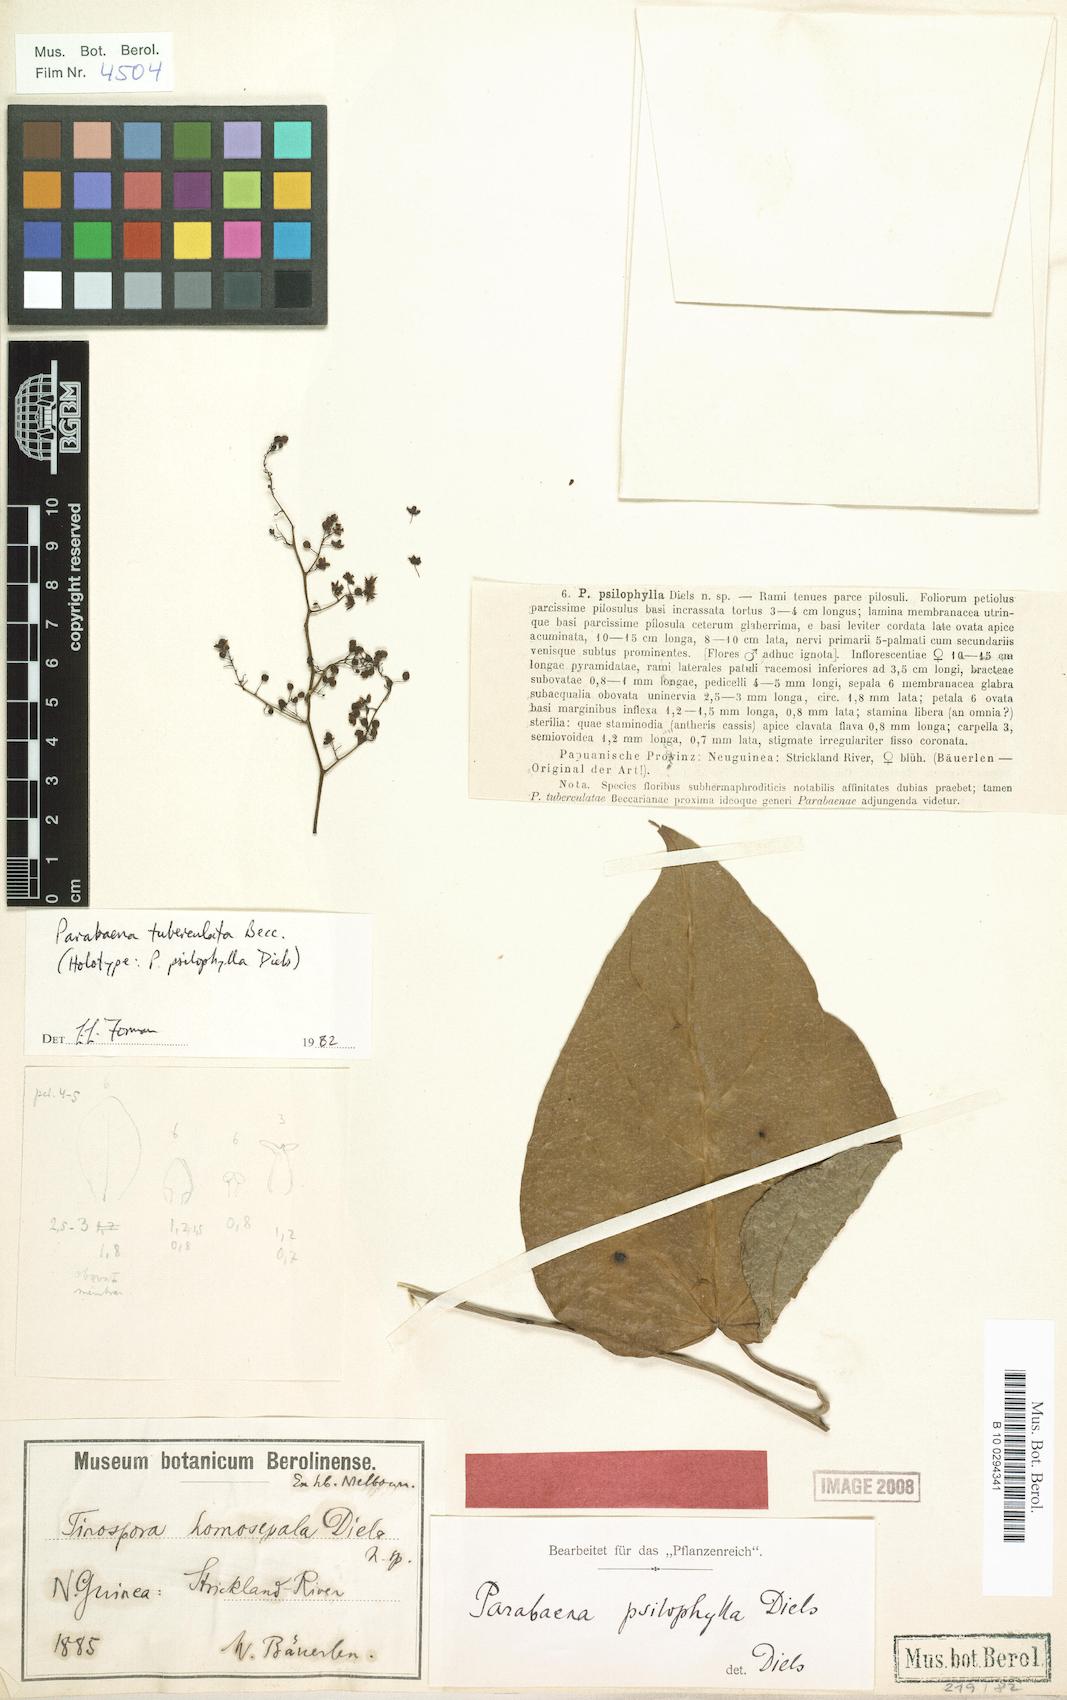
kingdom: Plantae
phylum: Tracheophyta
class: Magnoliopsida
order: Ranunculales
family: Menispermaceae
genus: Parabaena
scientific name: Parabaena tuberculata
